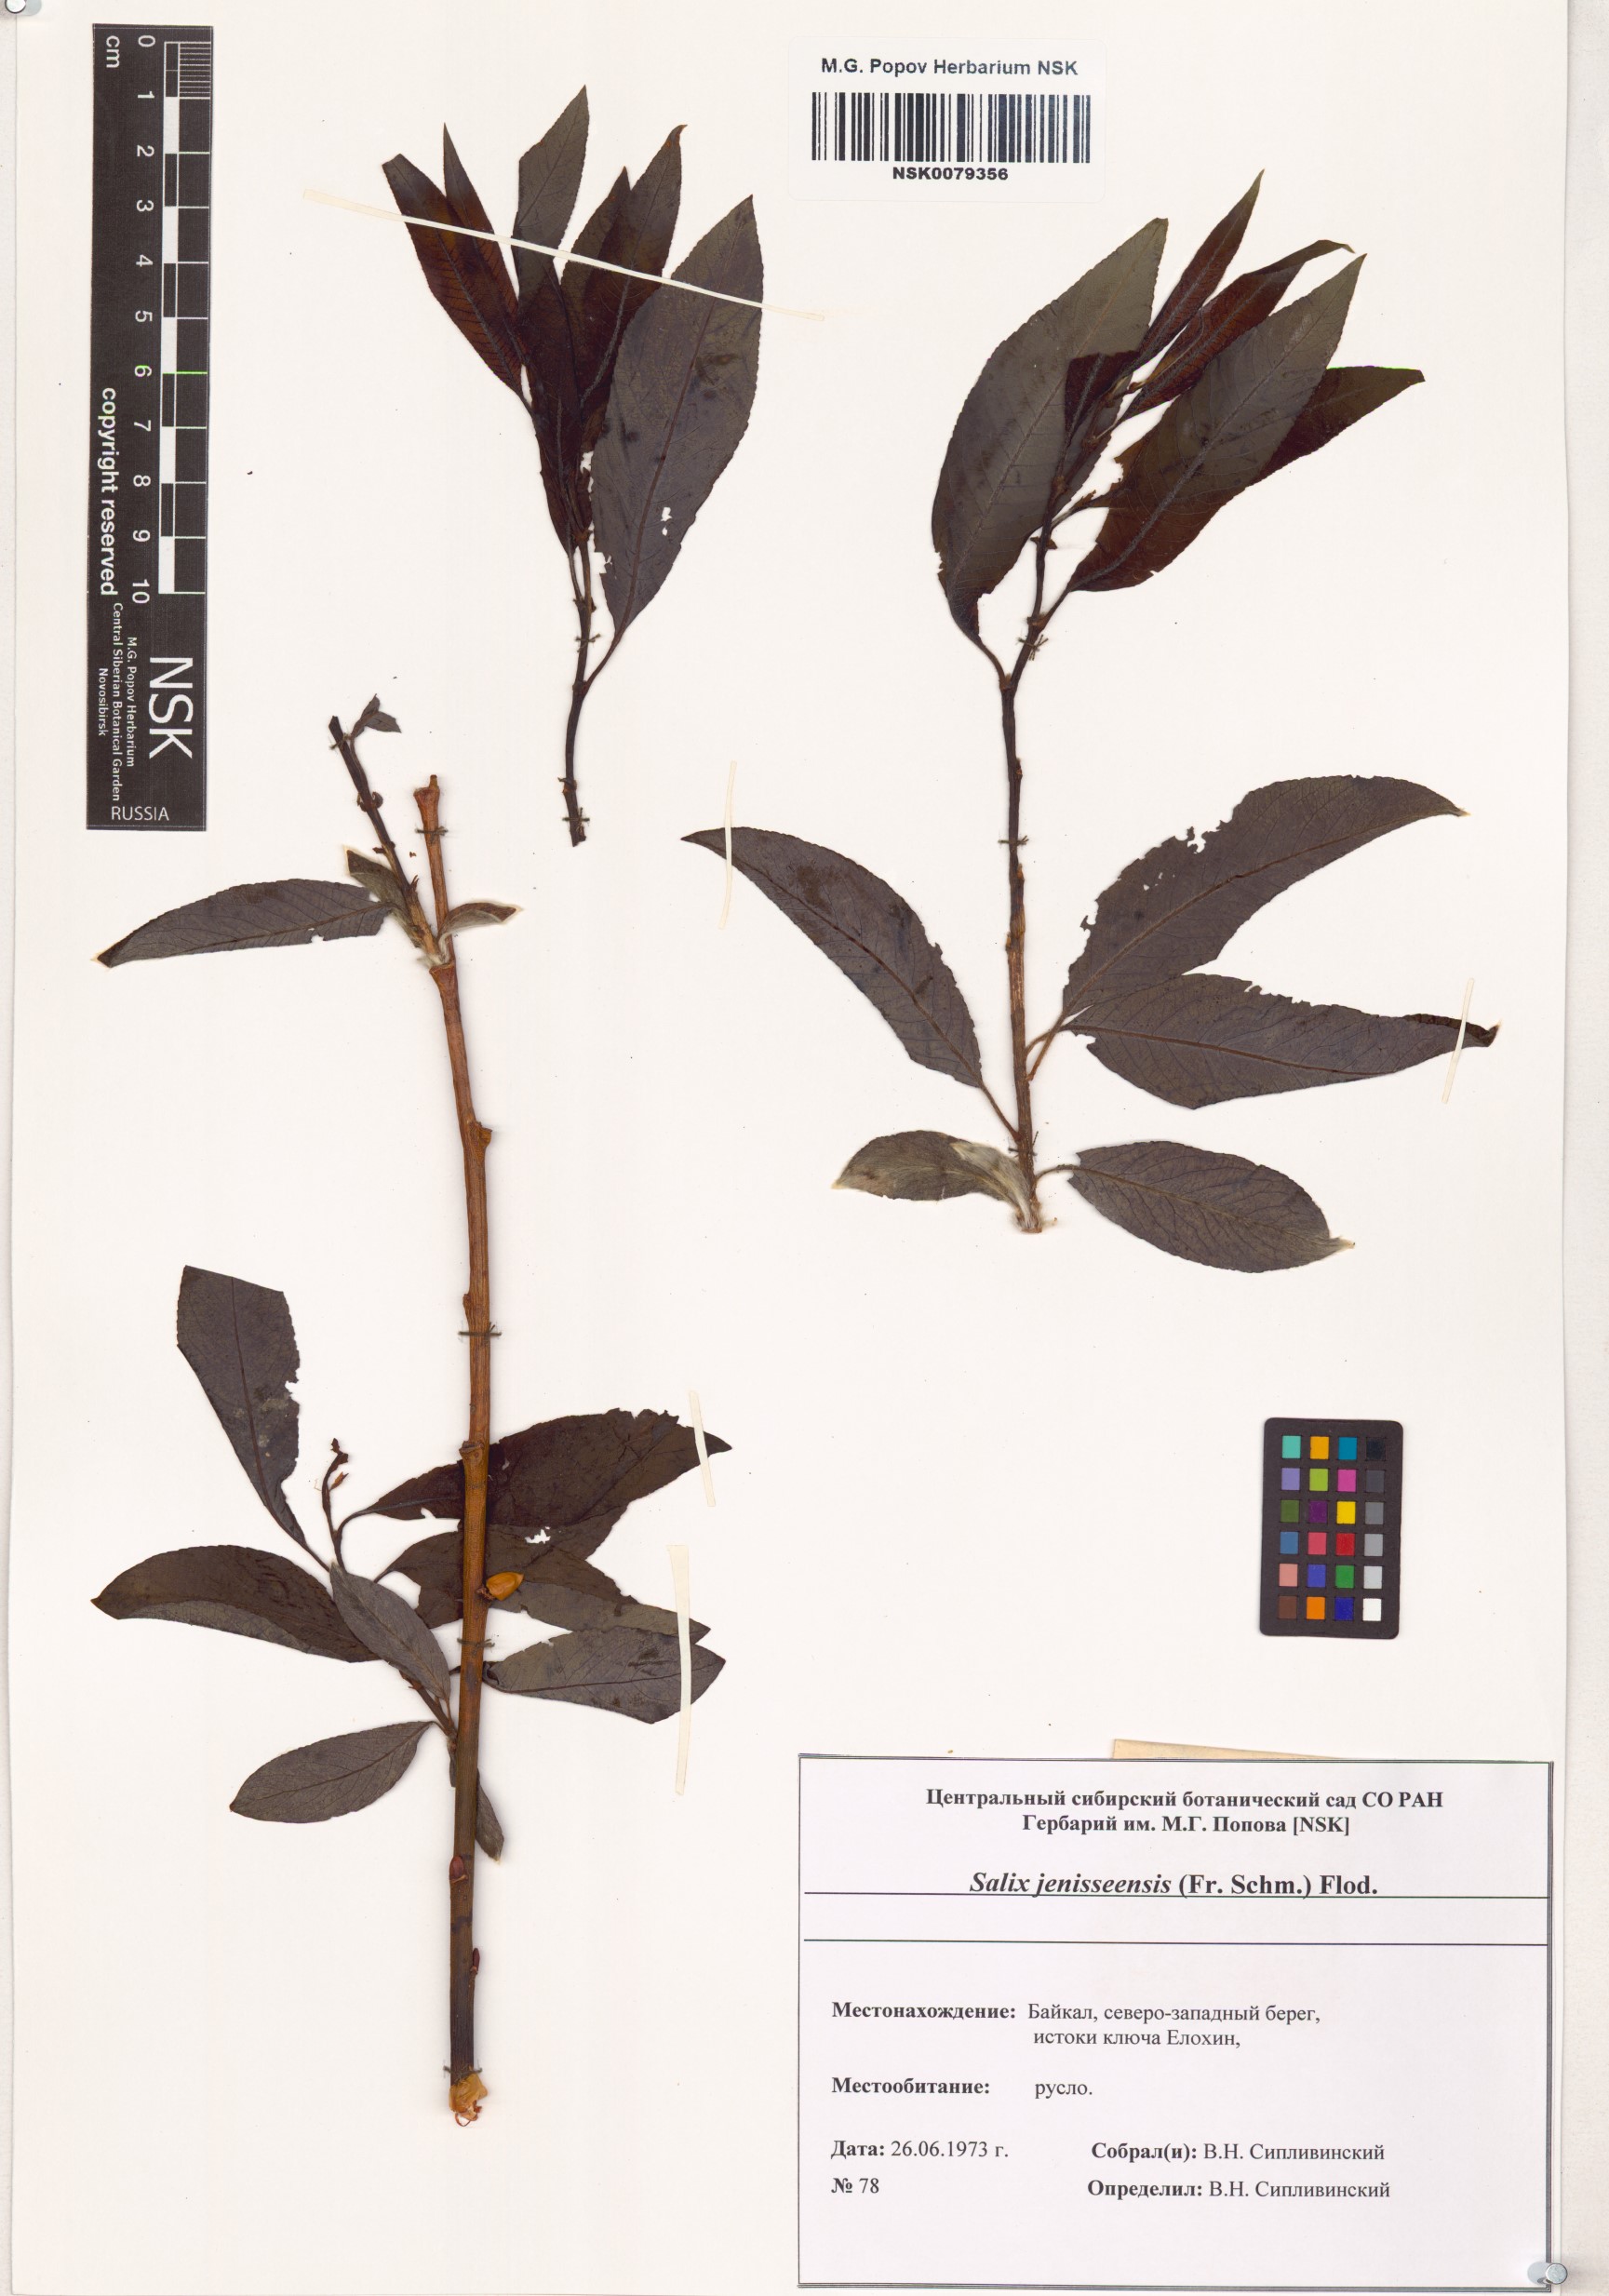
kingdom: Plantae
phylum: Tracheophyta
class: Magnoliopsida
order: Malpighiales
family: Salicaceae
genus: Salix
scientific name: Salix jenisseensis
